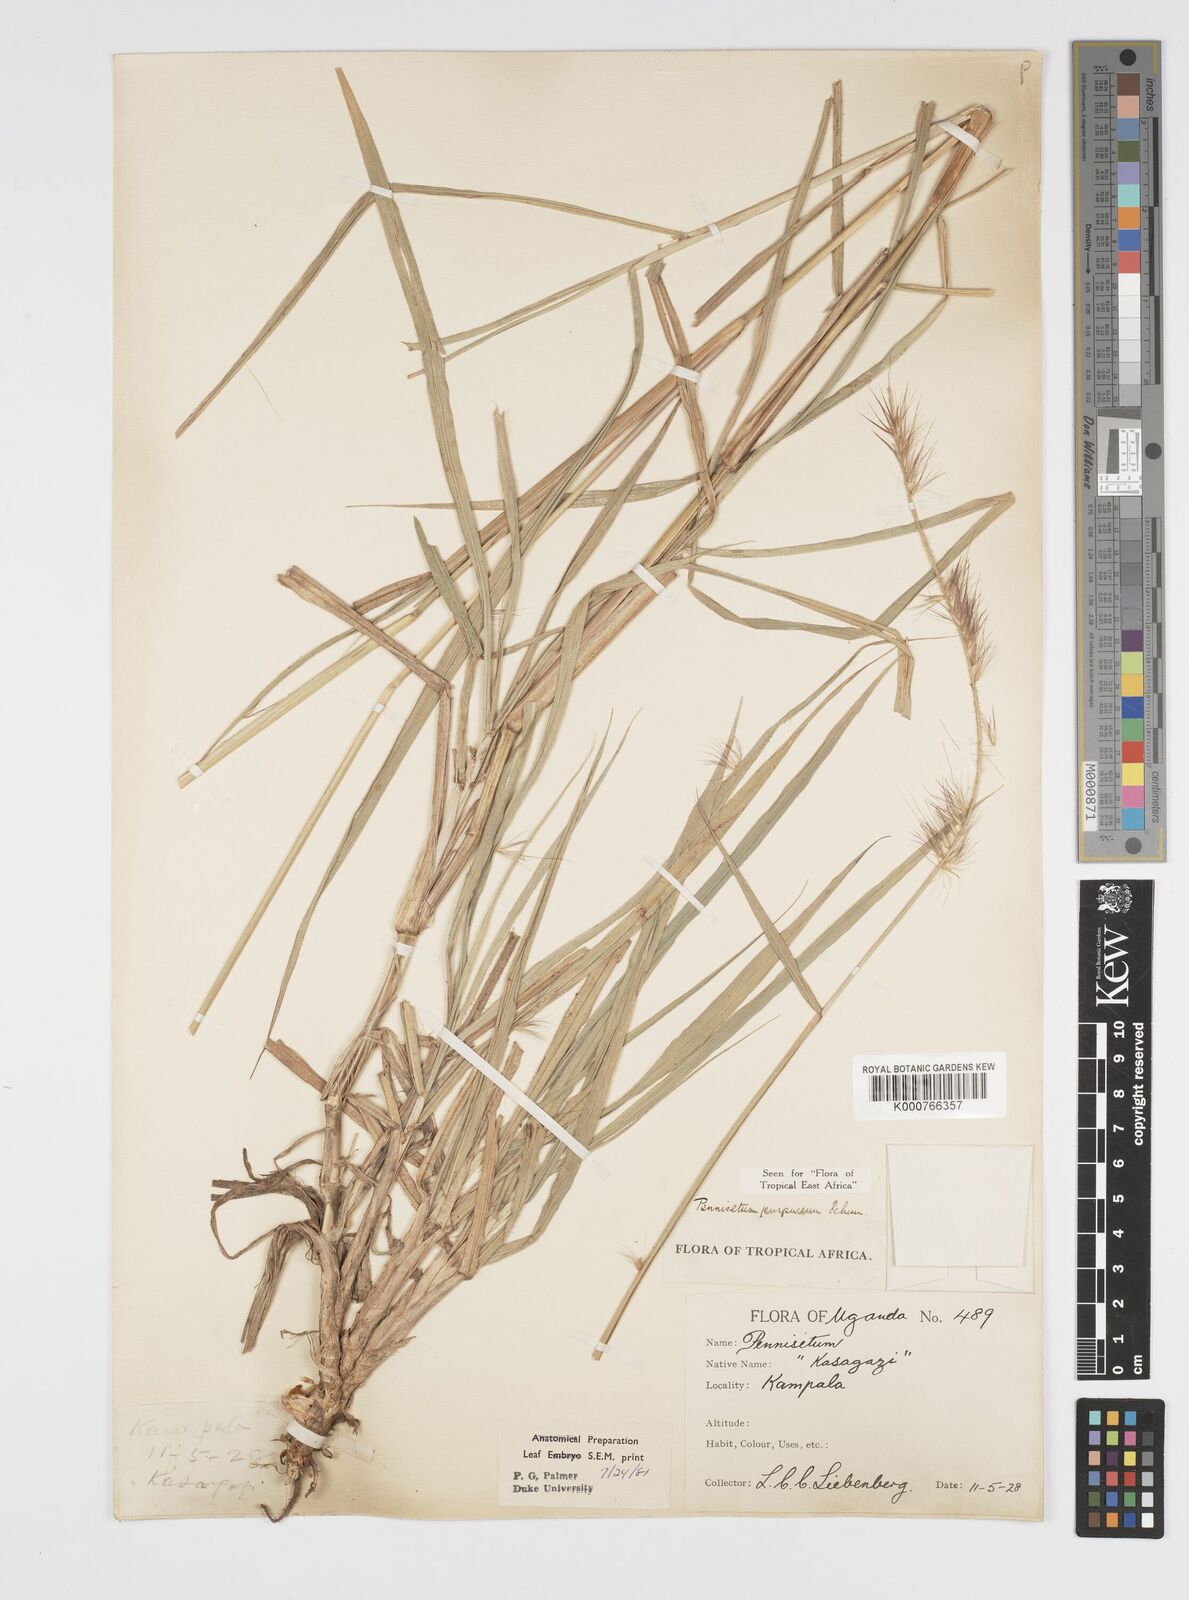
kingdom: Plantae
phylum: Tracheophyta
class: Liliopsida
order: Poales
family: Poaceae
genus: Cenchrus
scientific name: Cenchrus purpureus
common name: Elephant grass
